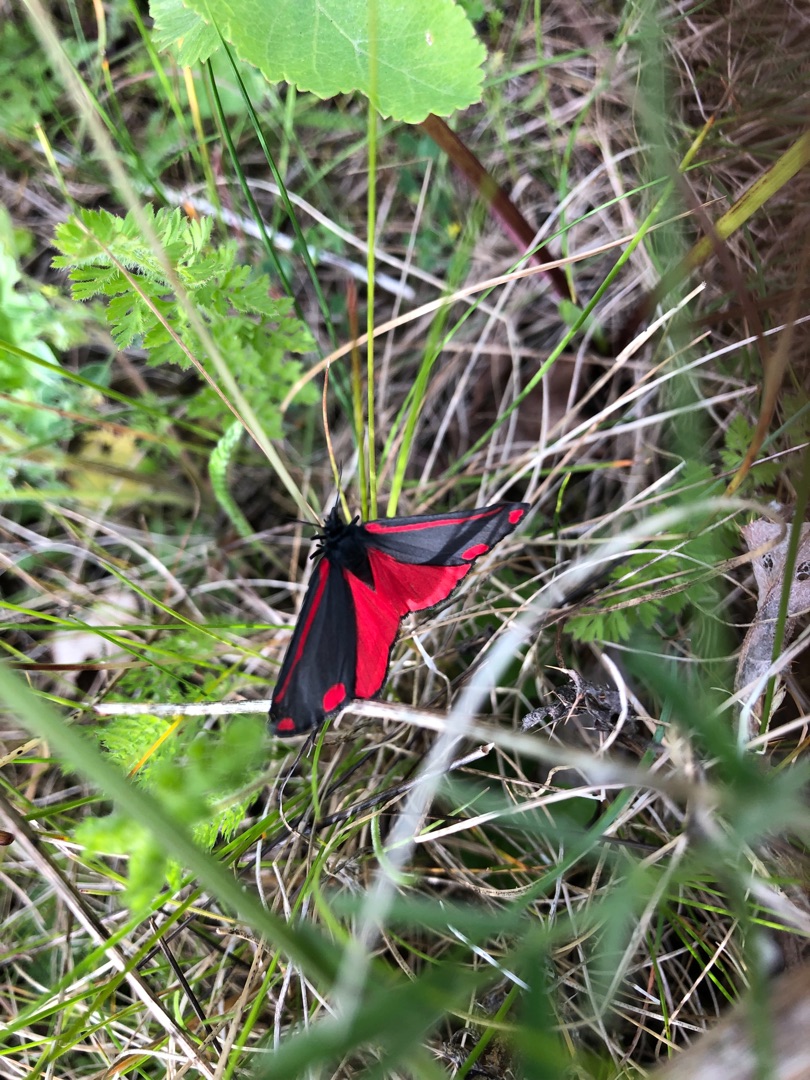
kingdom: Animalia
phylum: Arthropoda
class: Insecta
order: Lepidoptera
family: Erebidae
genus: Tyria
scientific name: Tyria jacobaeae
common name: Blodplet
